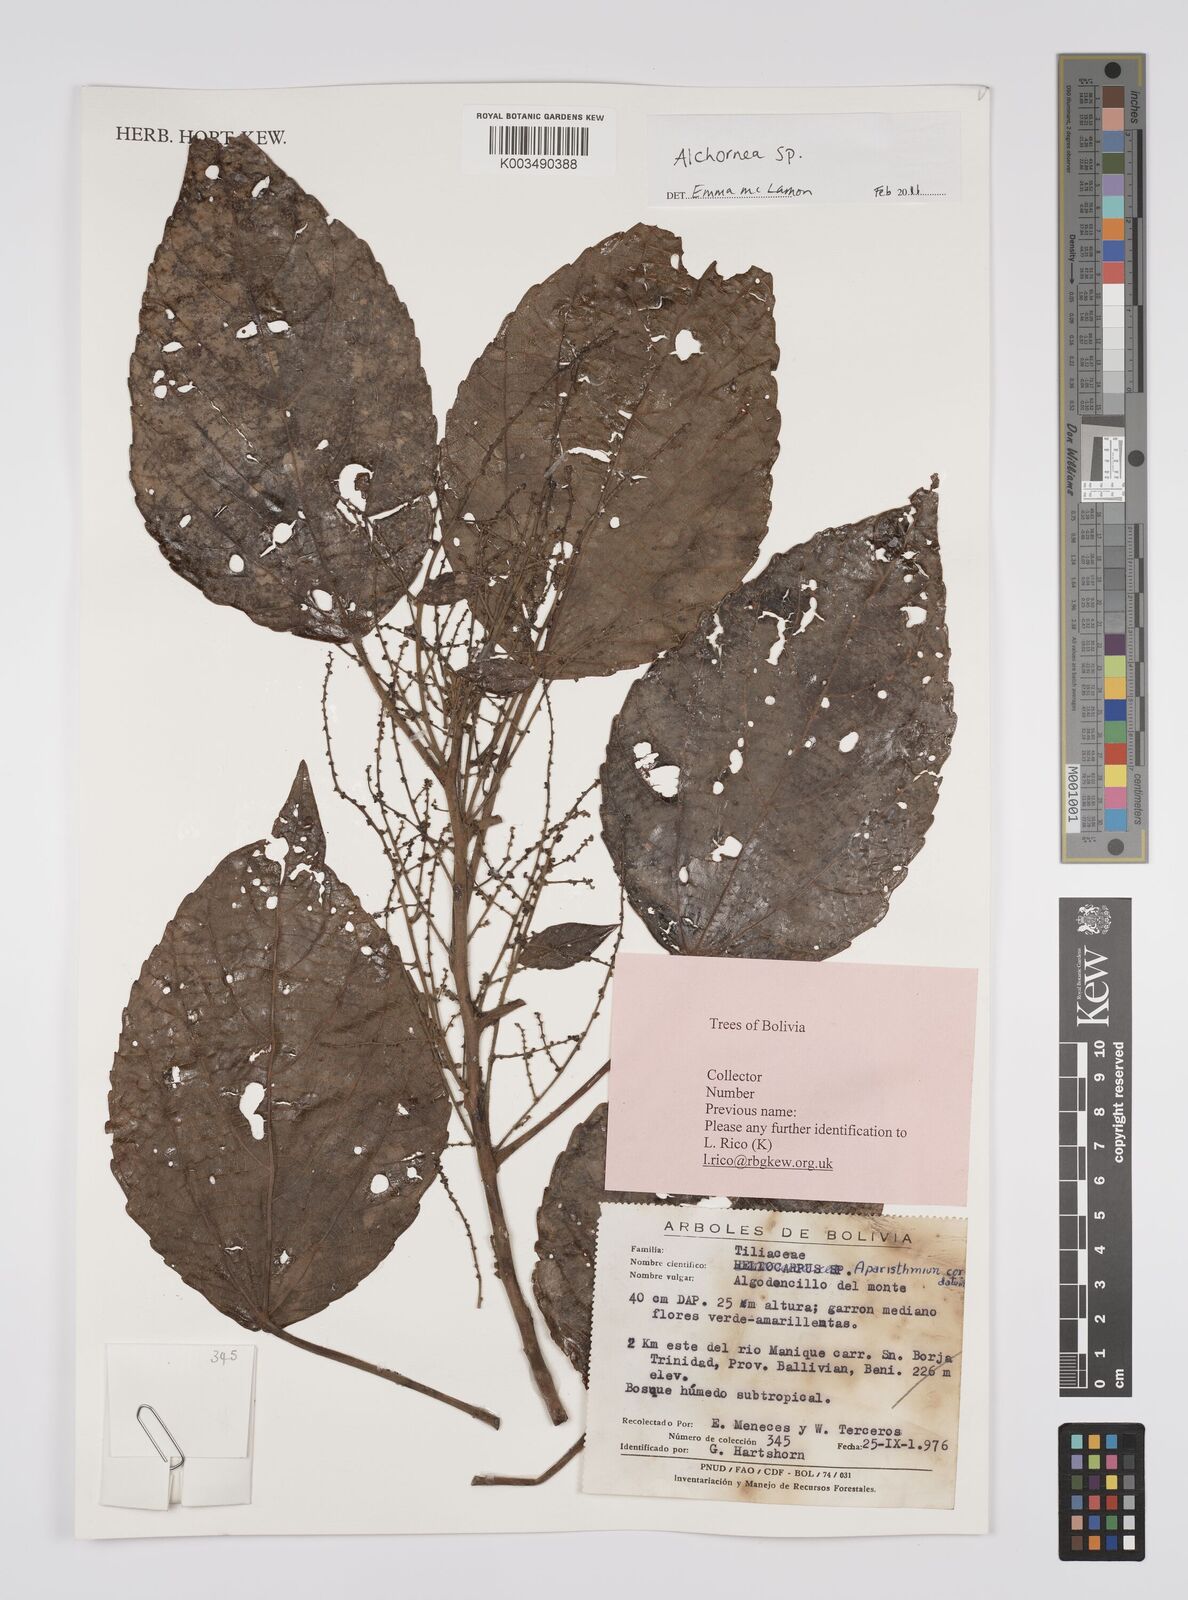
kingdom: Plantae
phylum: Tracheophyta
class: Magnoliopsida
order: Malpighiales
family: Euphorbiaceae
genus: Alchornea
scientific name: Alchornea
